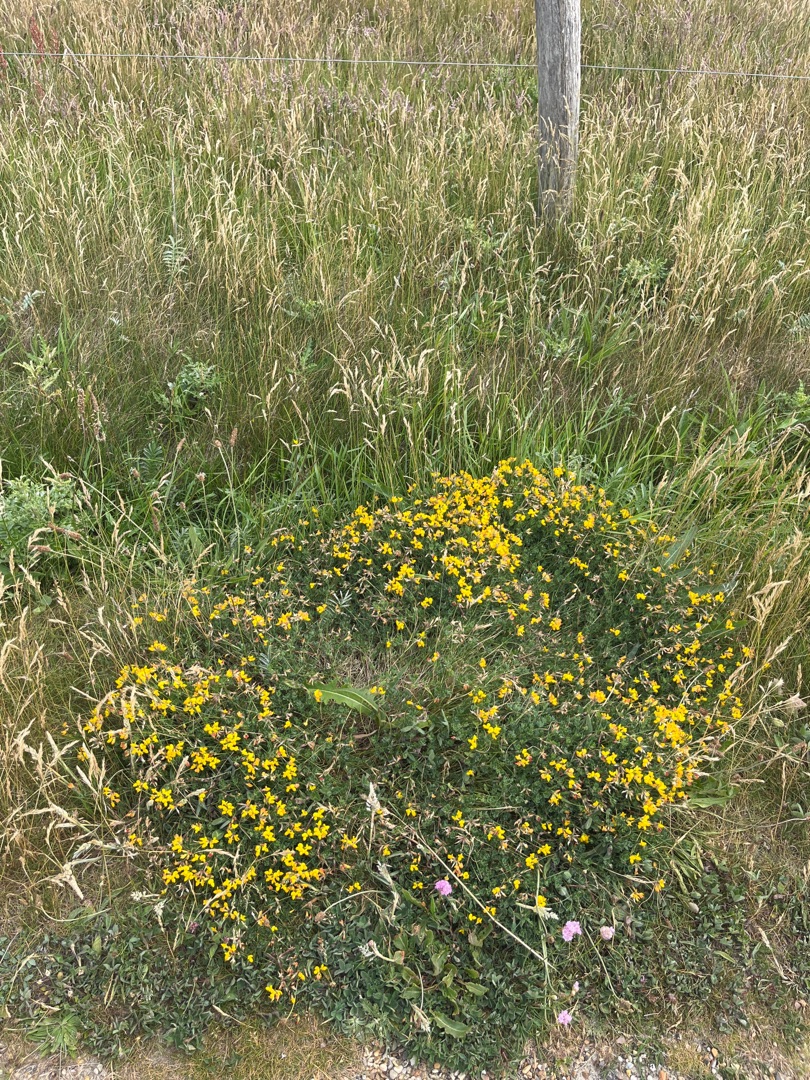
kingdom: Plantae
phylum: Tracheophyta
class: Magnoliopsida
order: Fabales
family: Fabaceae
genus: Lotus
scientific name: Lotus corniculatus
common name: Almindelig kællingetand
